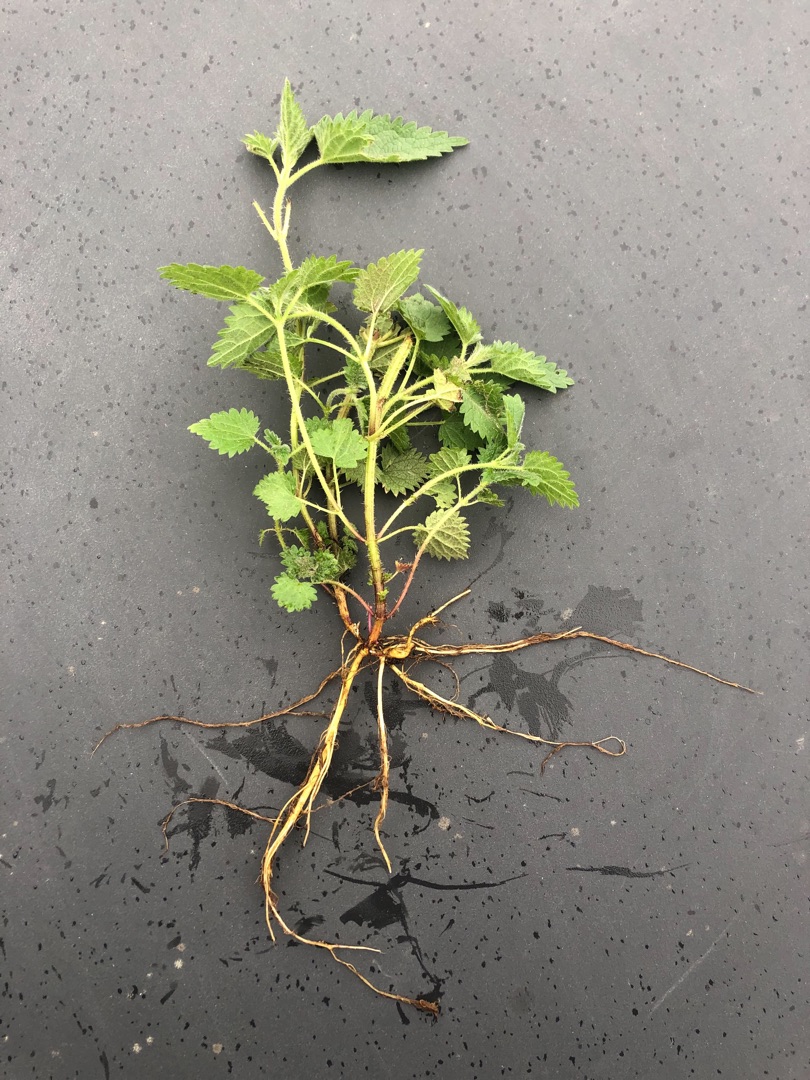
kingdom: Plantae
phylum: Tracheophyta
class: Magnoliopsida
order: Rosales
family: Urticaceae
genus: Urtica
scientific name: Urtica dioica
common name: Stor nælde
